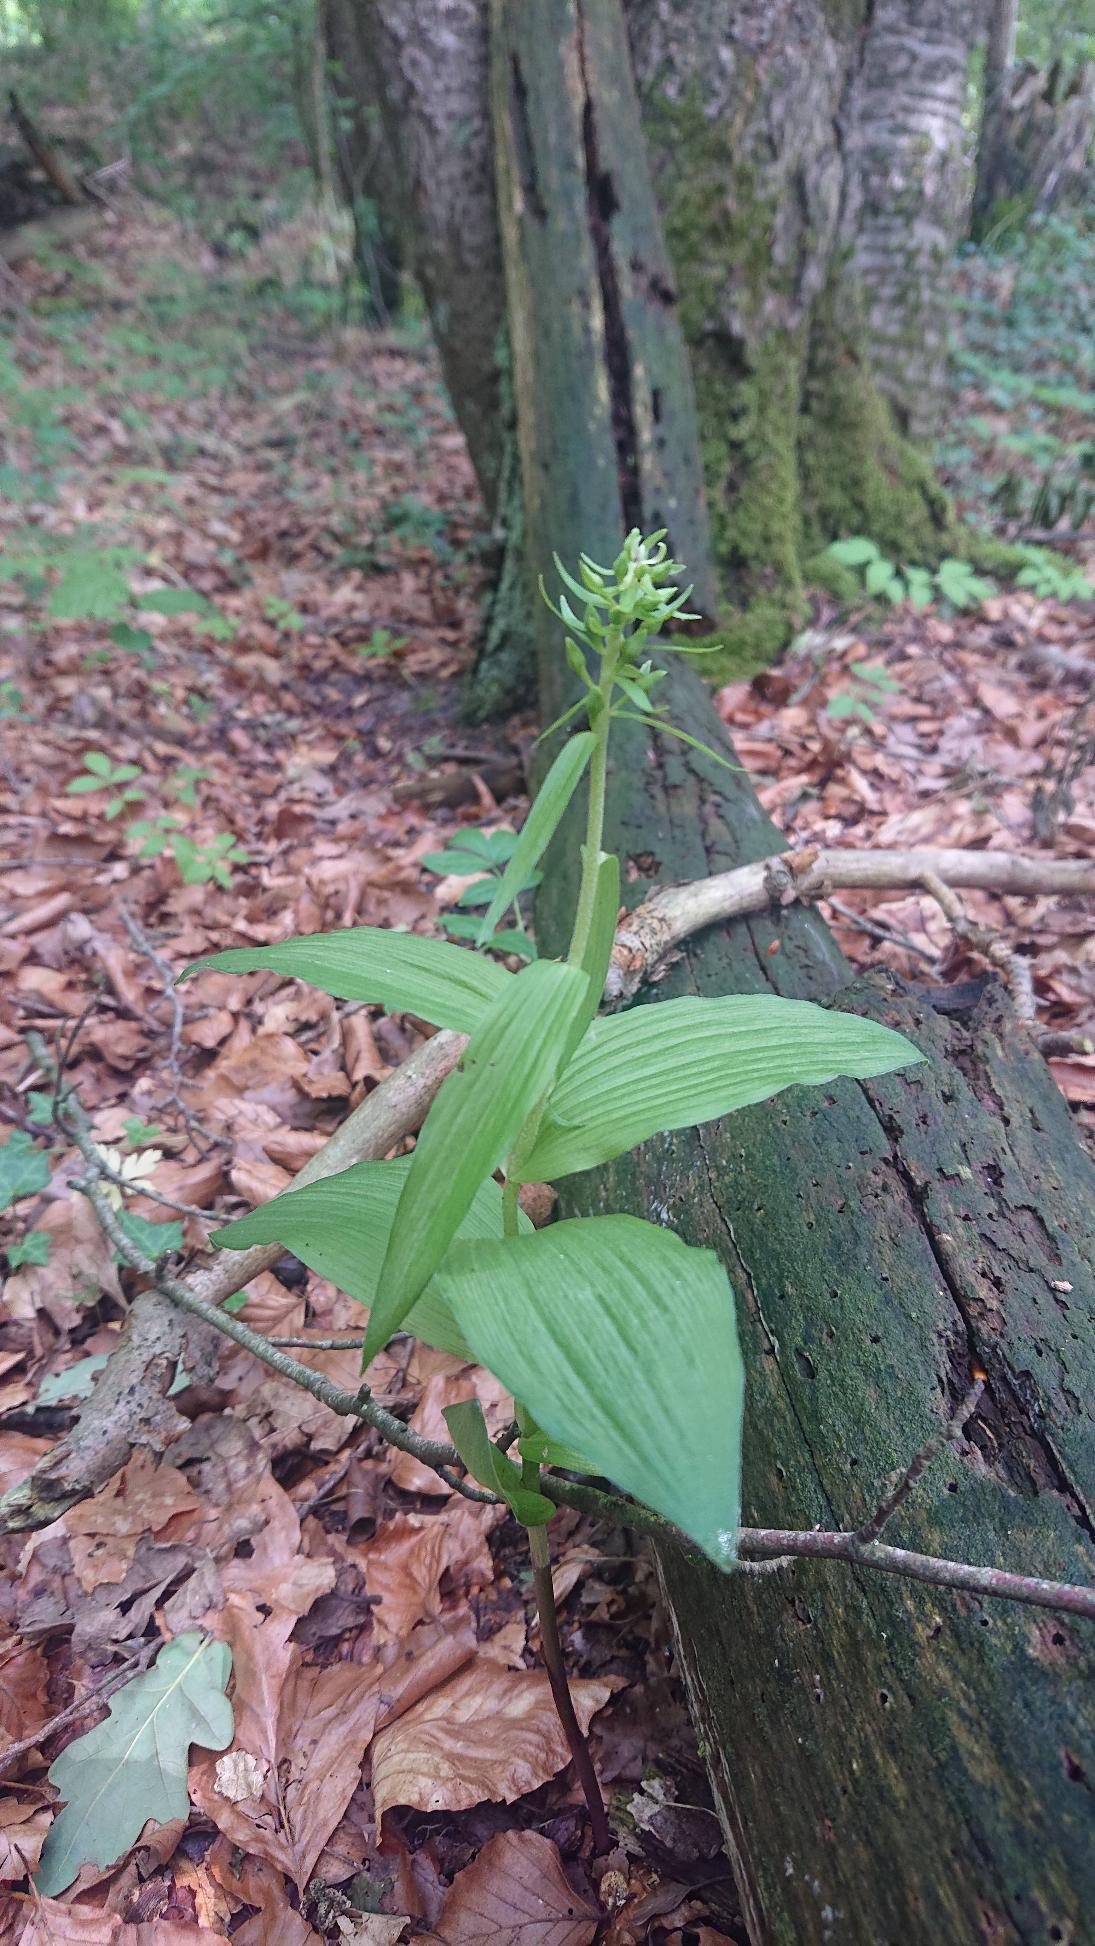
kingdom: Plantae
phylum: Tracheophyta
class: Liliopsida
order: Asparagales
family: Orchidaceae
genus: Epipactis
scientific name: Epipactis helleborine
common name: Skov-hullæbe
